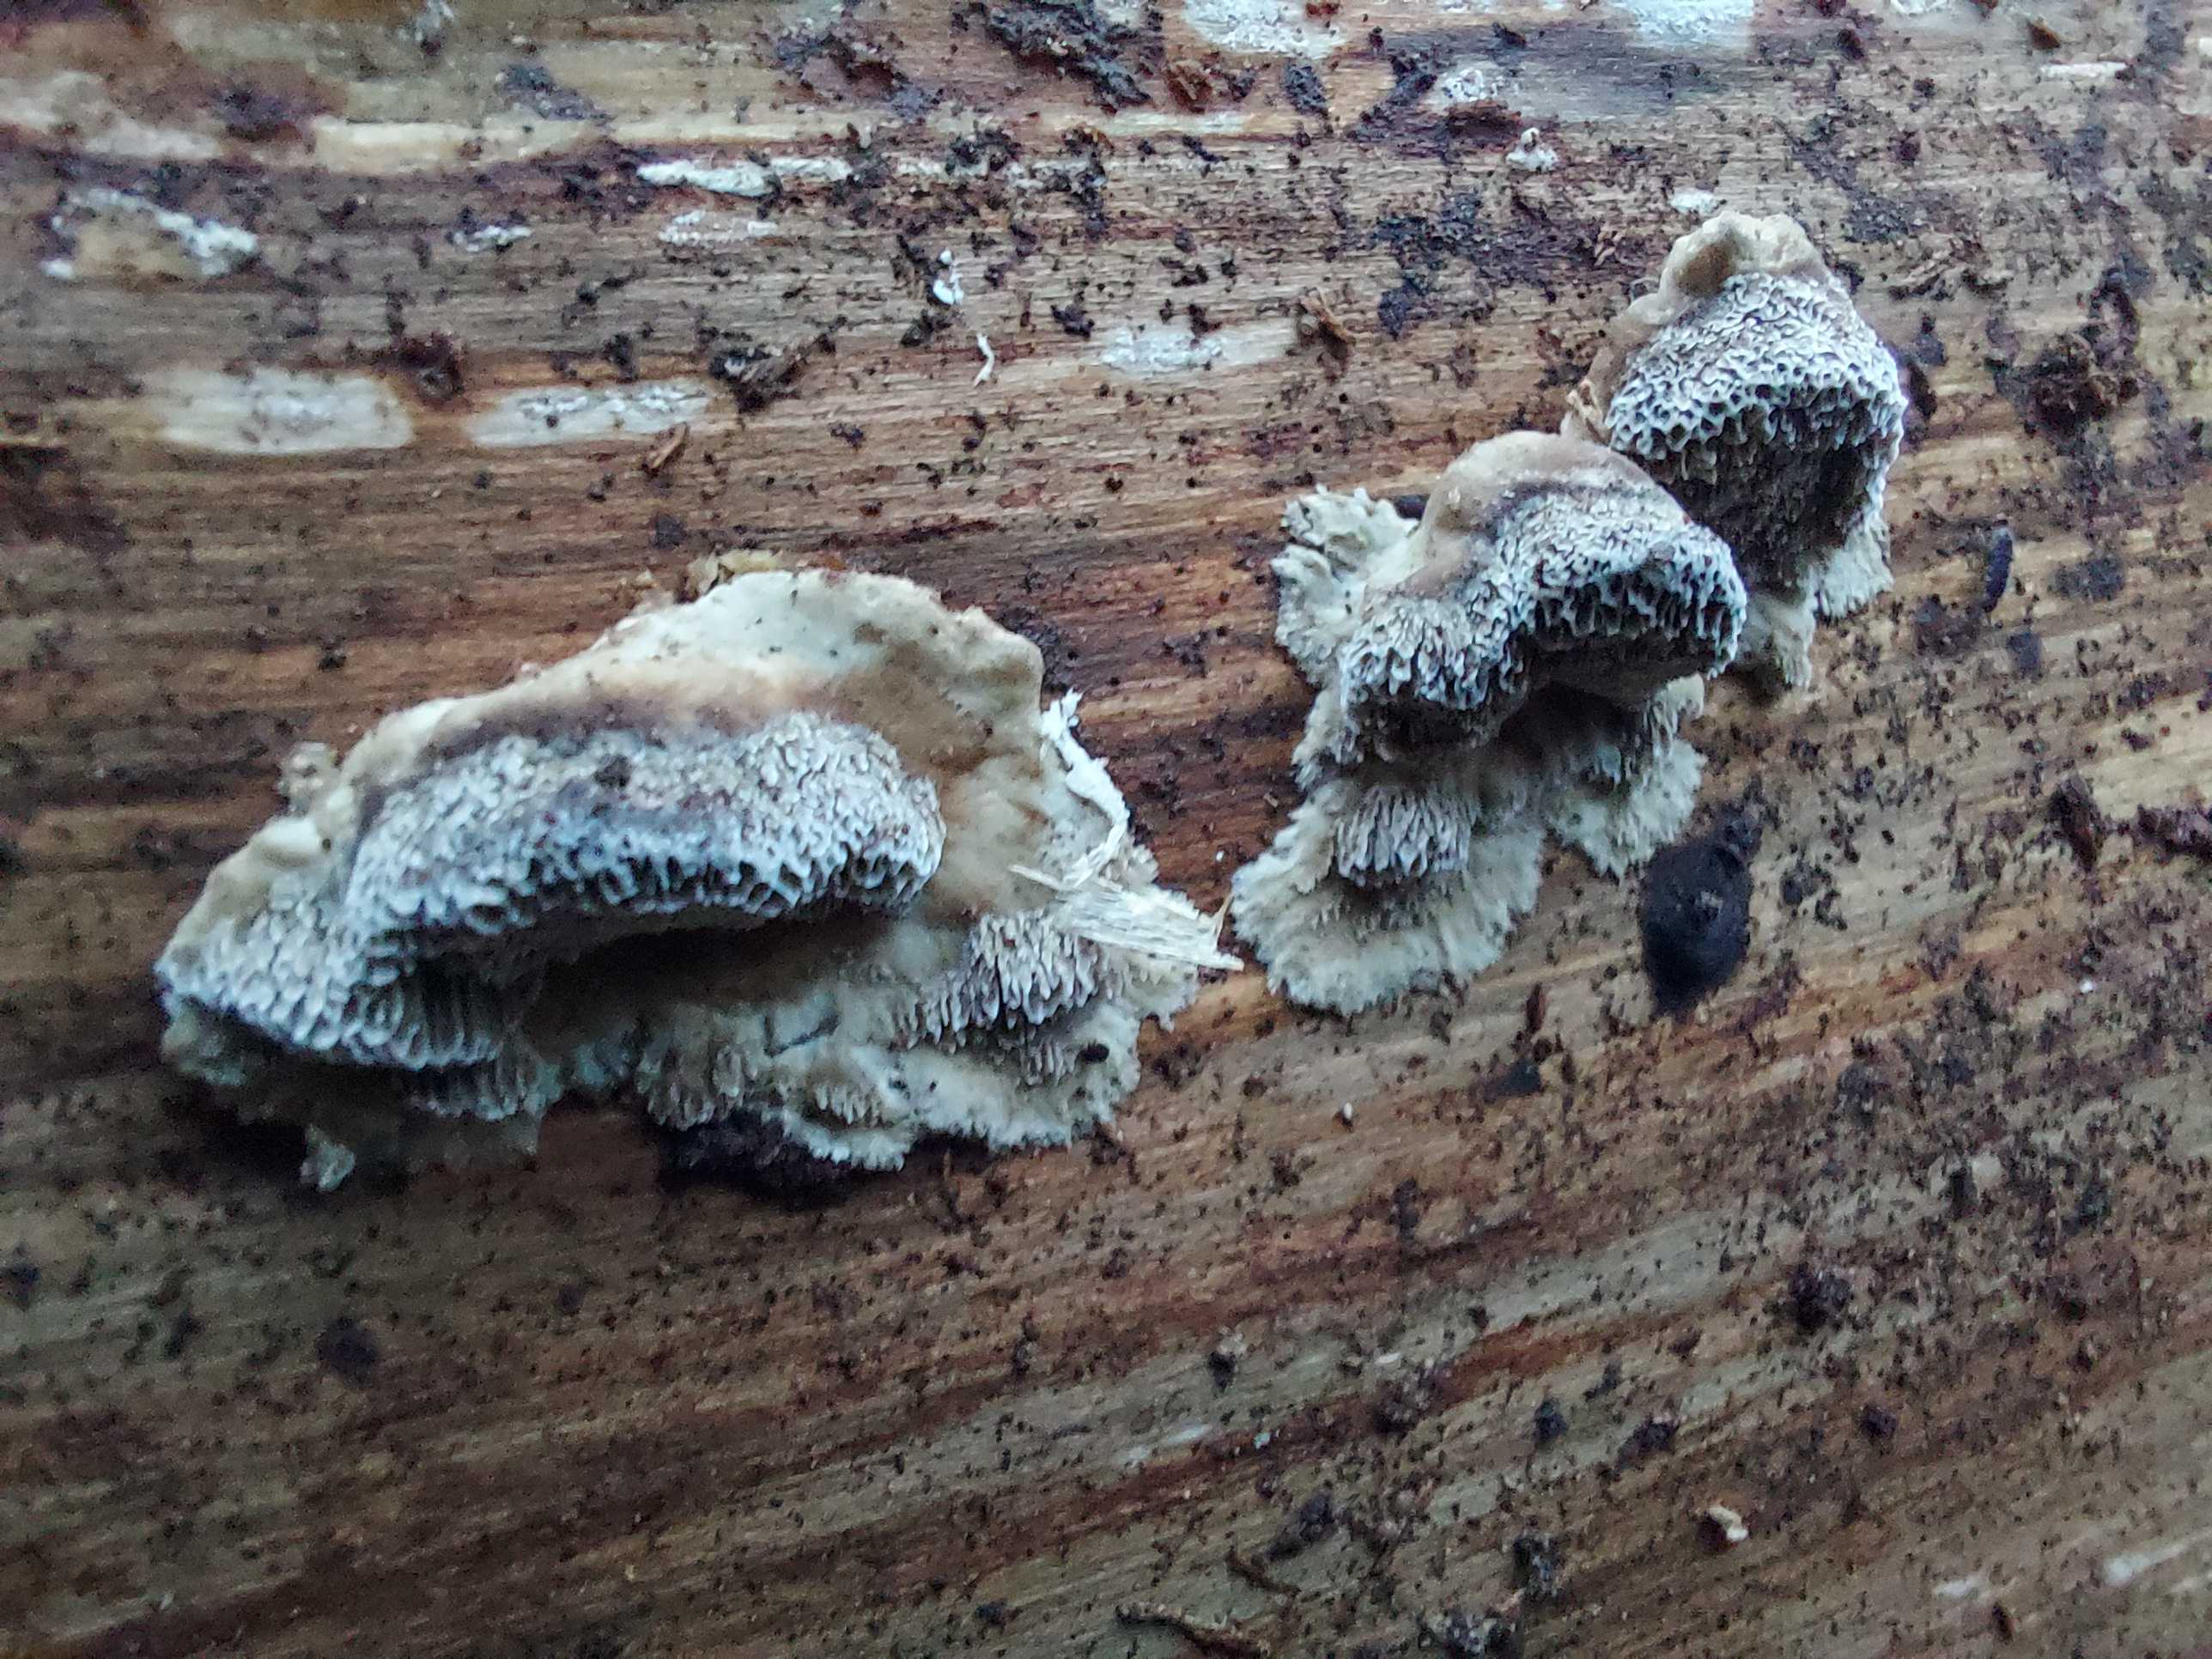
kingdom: Fungi
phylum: Basidiomycota
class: Agaricomycetes
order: Polyporales
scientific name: Polyporales
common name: poresvampordenen
